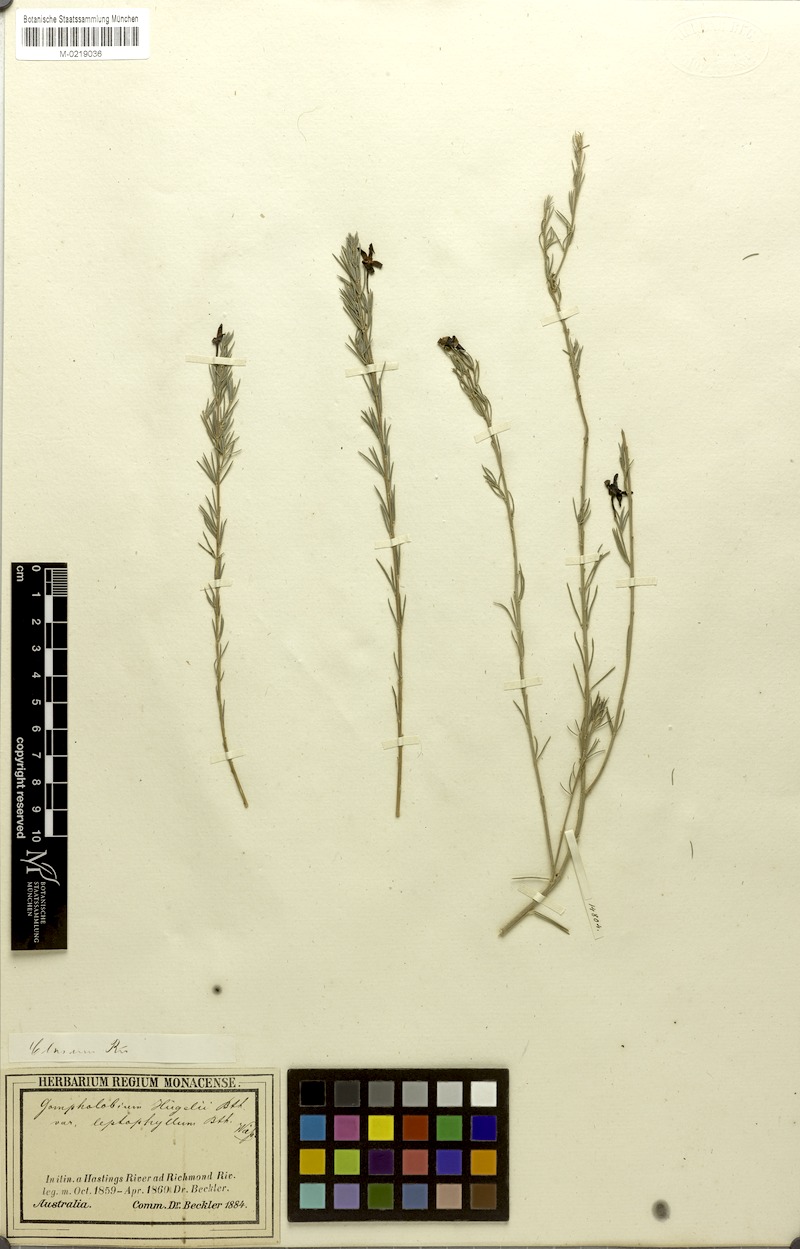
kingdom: Plantae
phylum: Tracheophyta
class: Magnoliopsida
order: Fabales
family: Fabaceae
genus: Gompholobium
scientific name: Gompholobium huegelii
